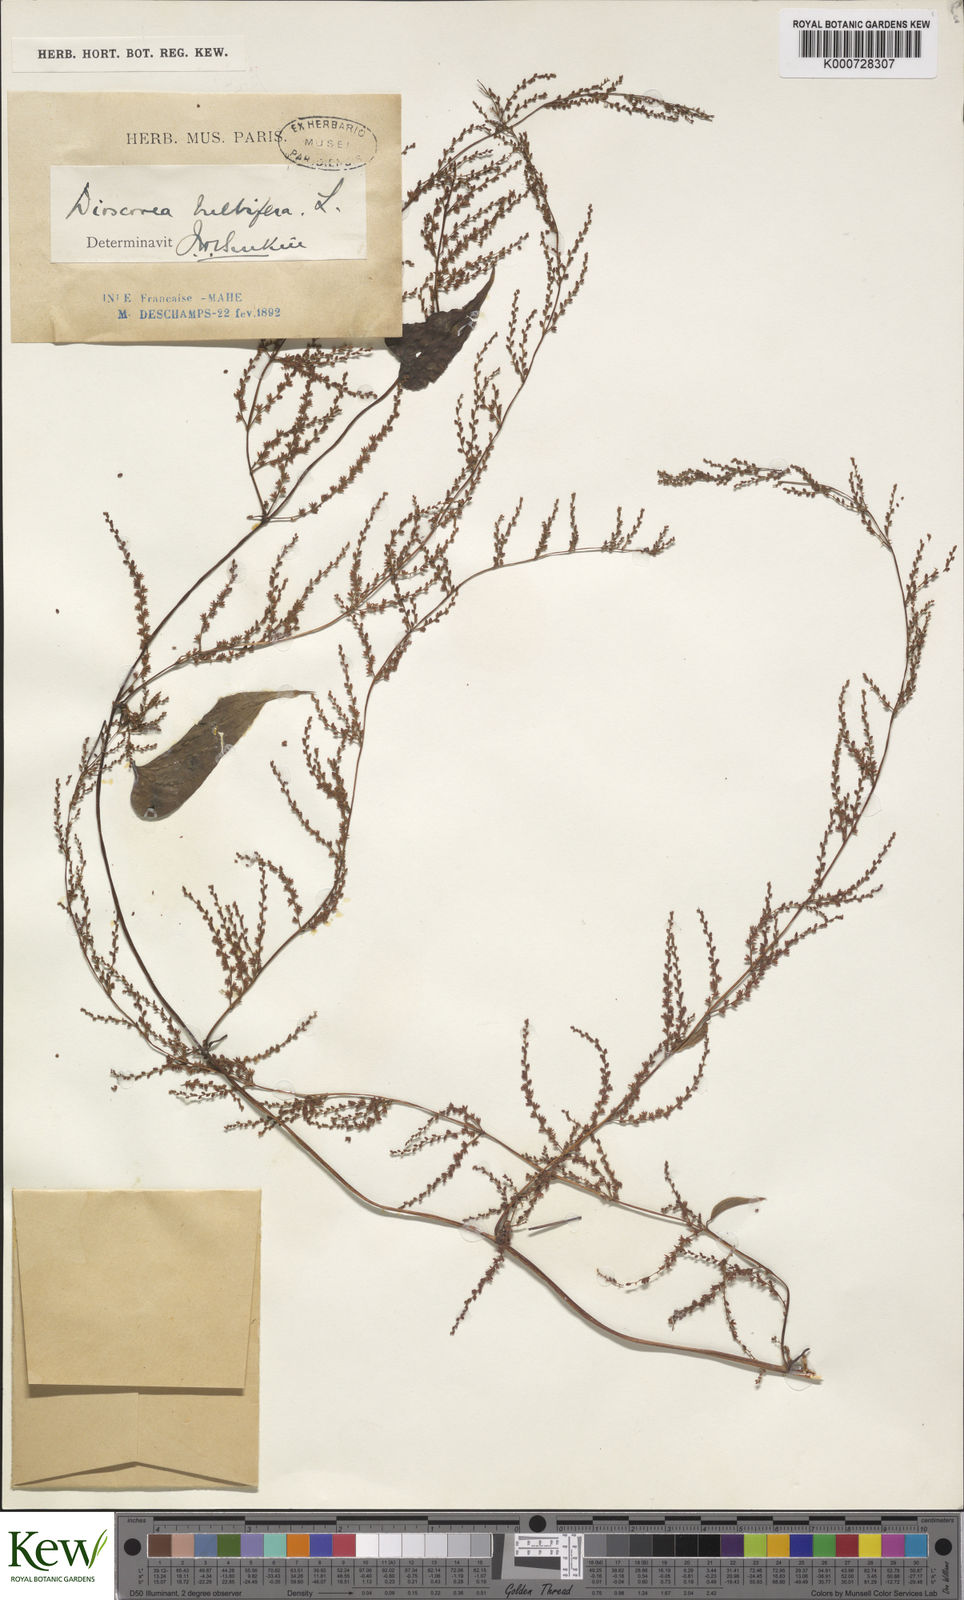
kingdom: Plantae
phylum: Tracheophyta
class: Liliopsida
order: Dioscoreales
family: Dioscoreaceae
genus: Dioscorea
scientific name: Dioscorea bulbifera
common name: Air yam
